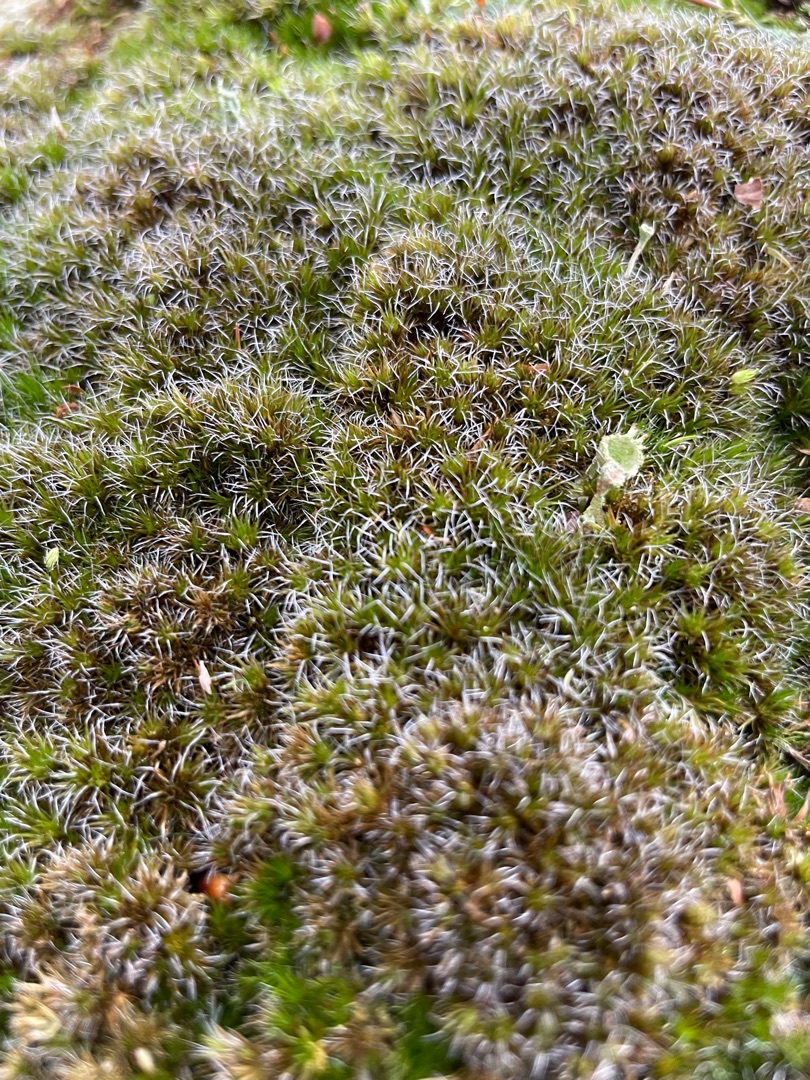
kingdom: Plantae
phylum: Bryophyta
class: Bryopsida
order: Dicranales
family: Leucobryaceae
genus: Campylopus
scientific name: Campylopus introflexus
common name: Stjerne-bredribbe
